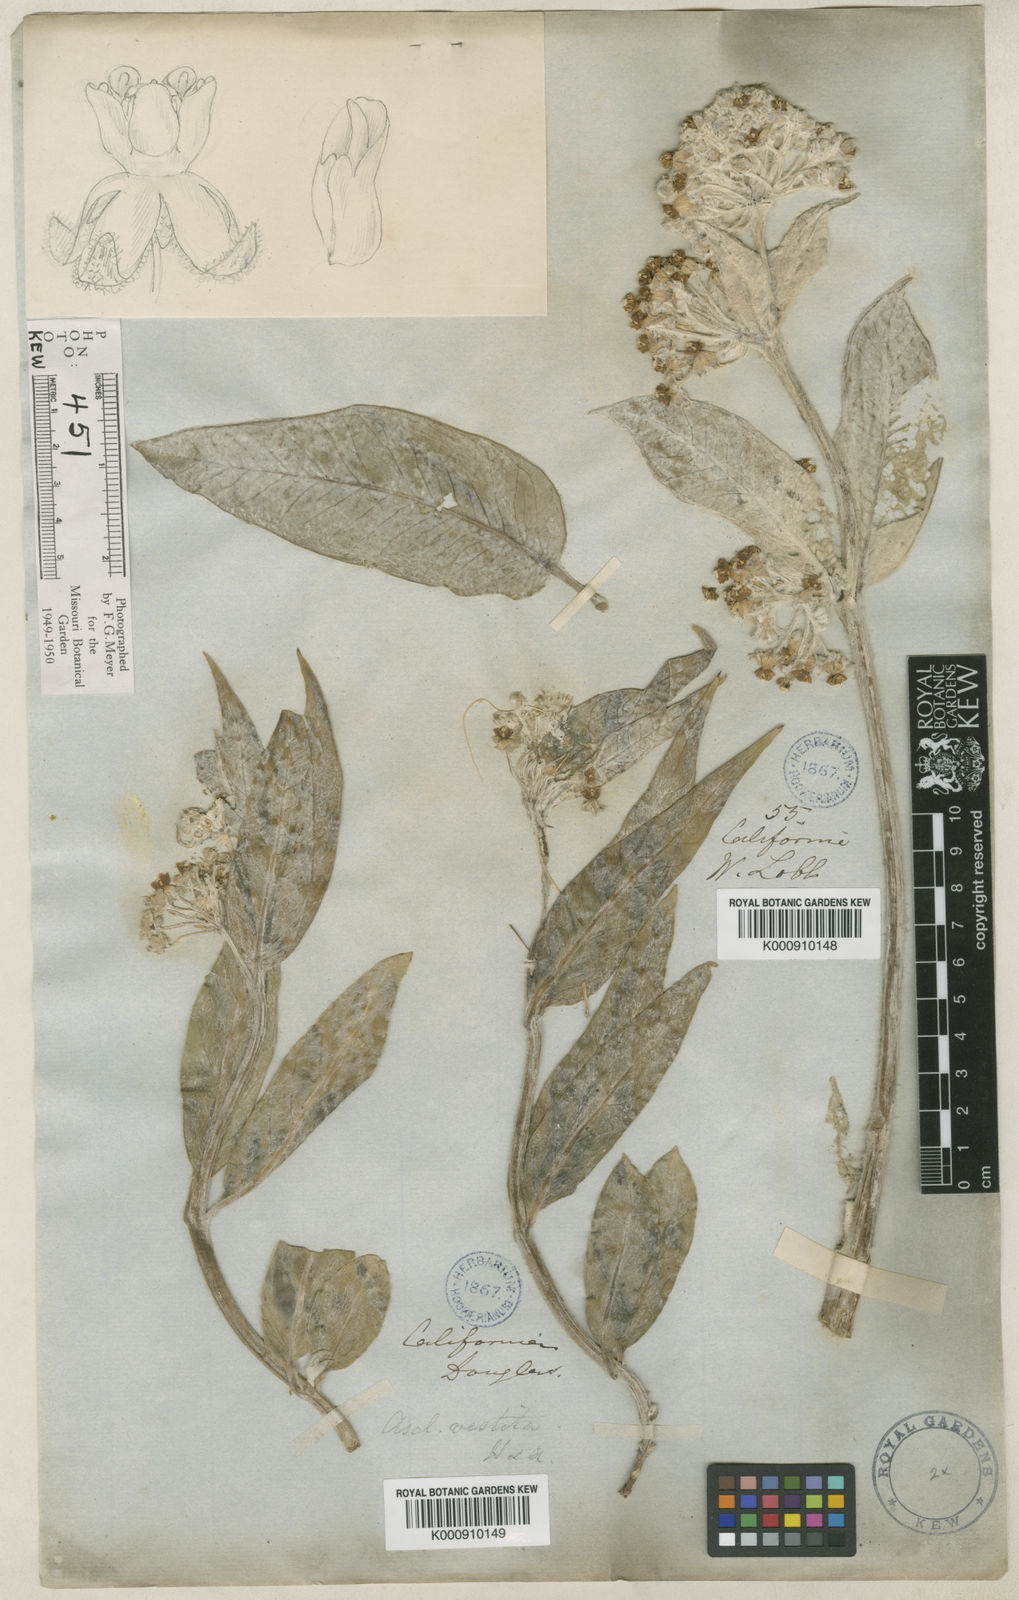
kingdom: Plantae
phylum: Tracheophyta
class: Magnoliopsida
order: Gentianales
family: Apocynaceae
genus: Asclepias
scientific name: Asclepias vestita
